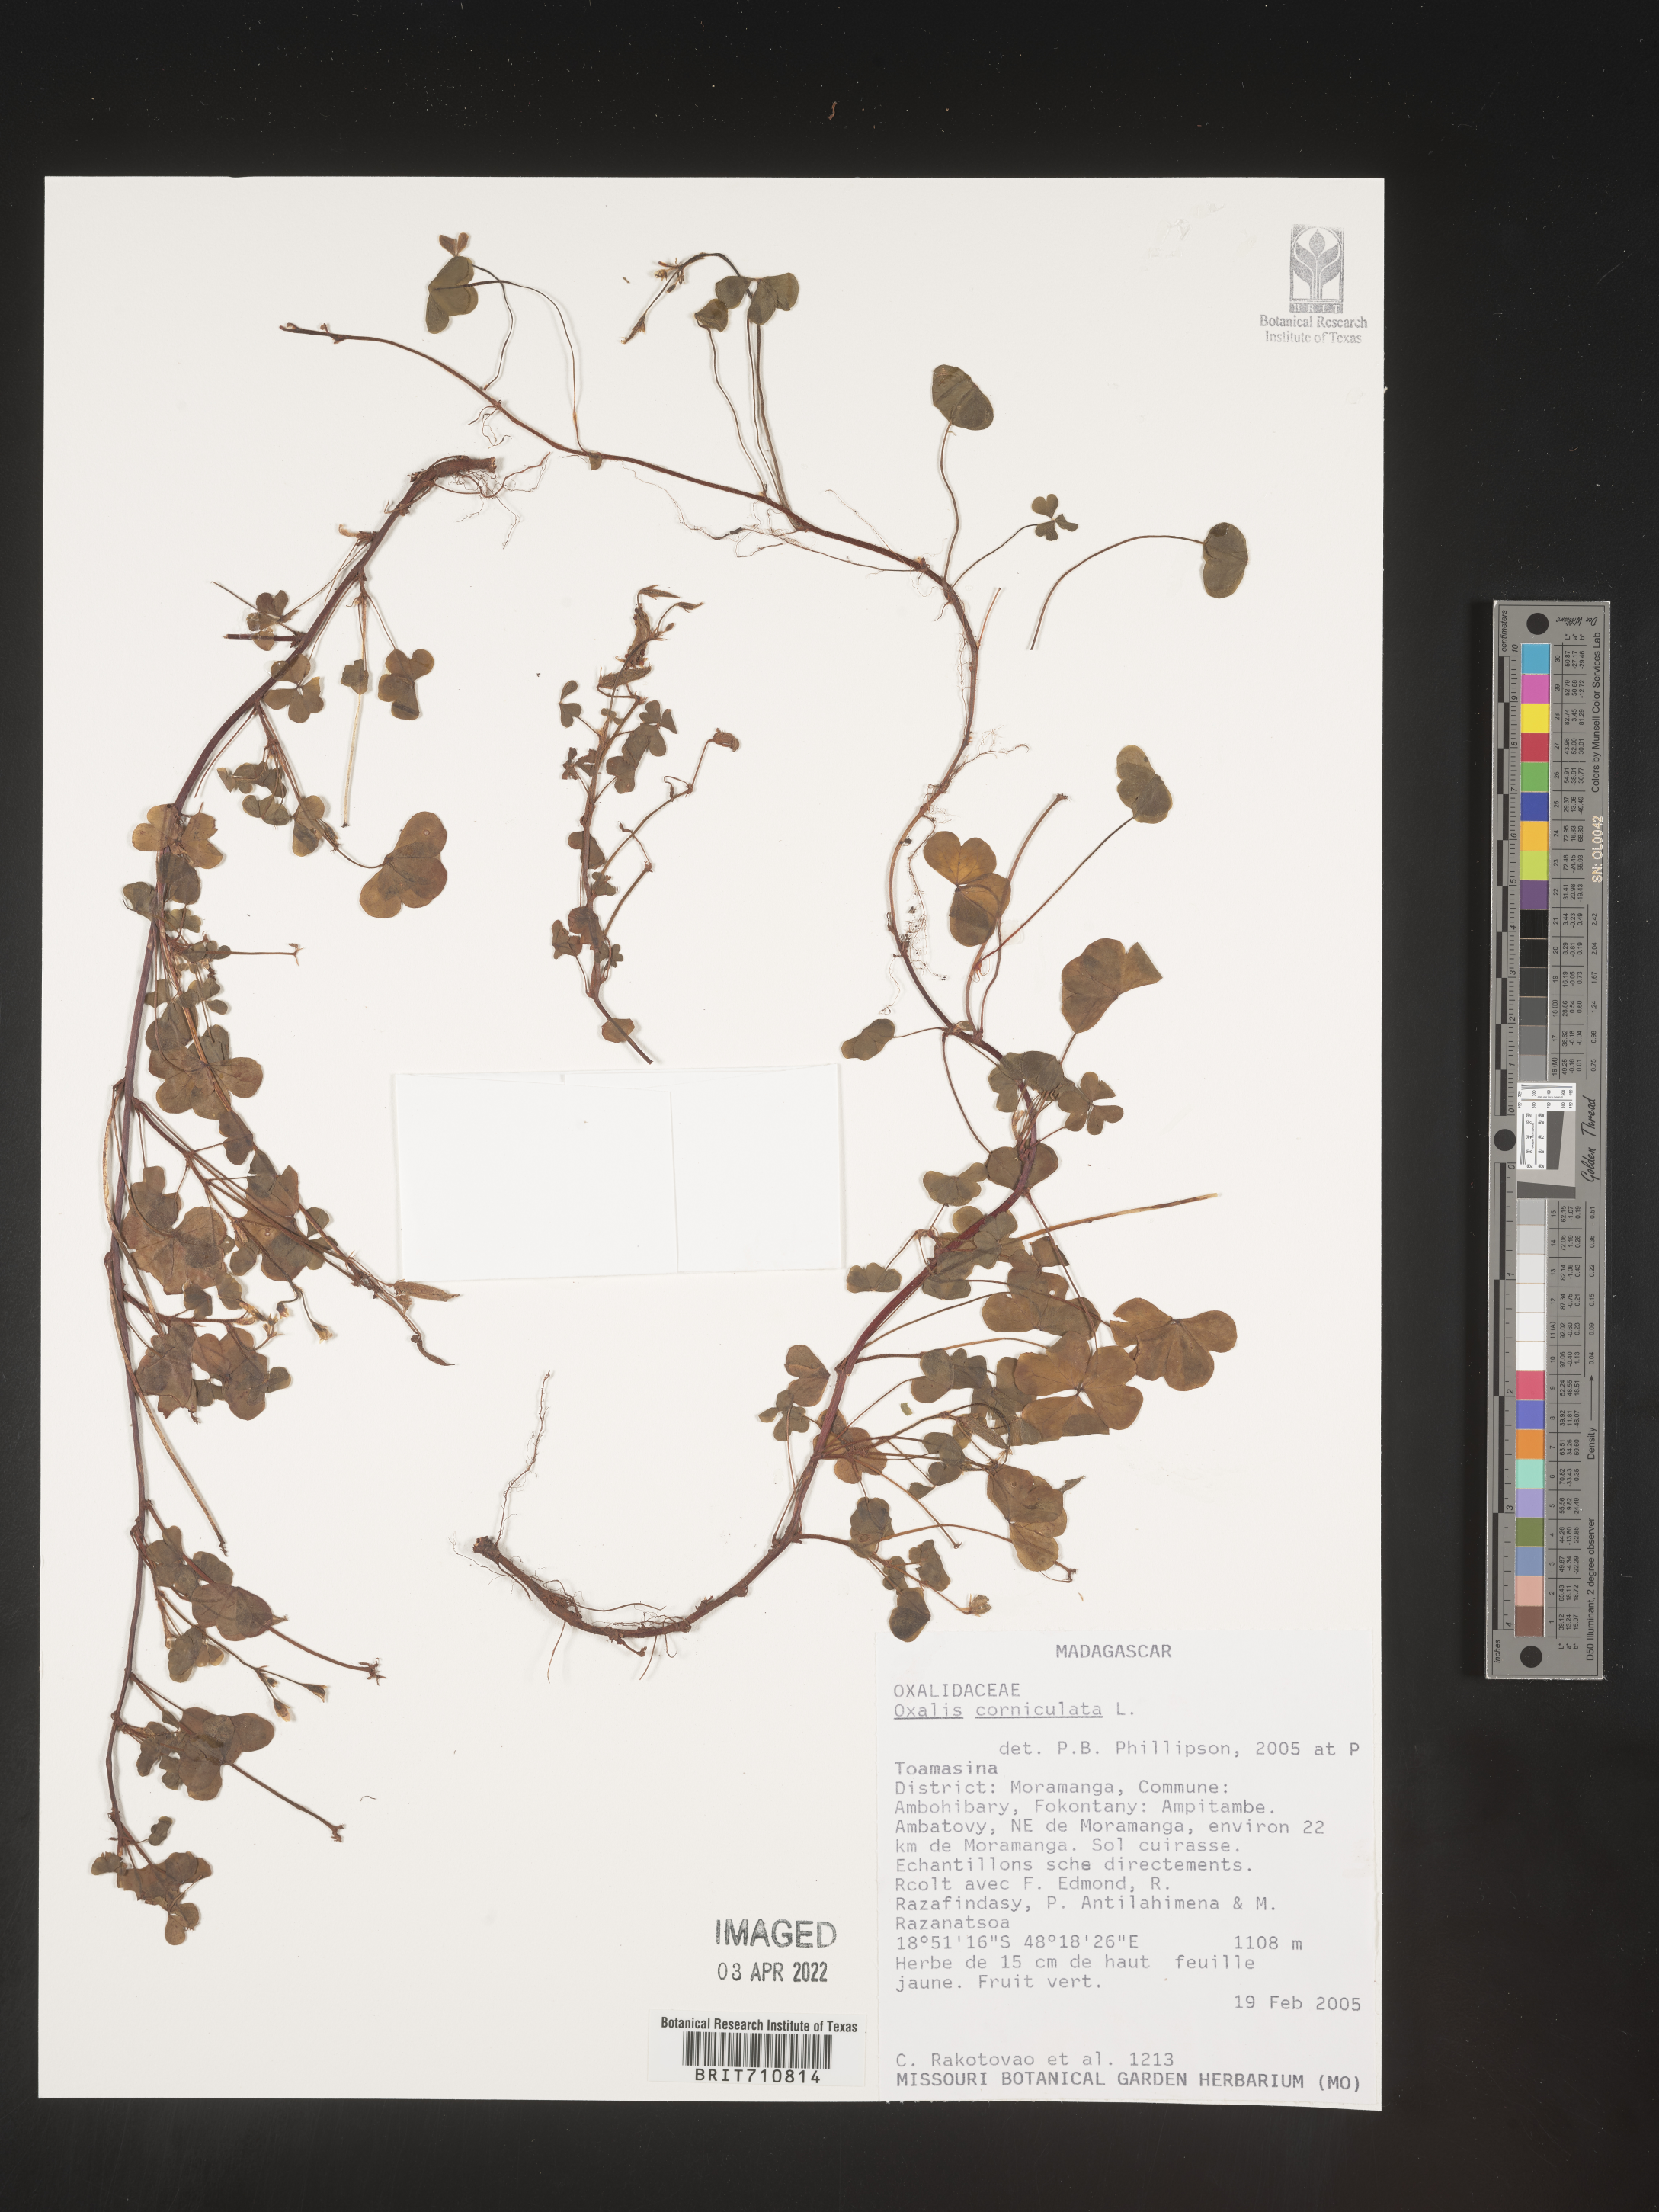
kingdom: Plantae
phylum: Tracheophyta
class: Magnoliopsida
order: Oxalidales
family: Oxalidaceae
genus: Oxalis
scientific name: Oxalis
